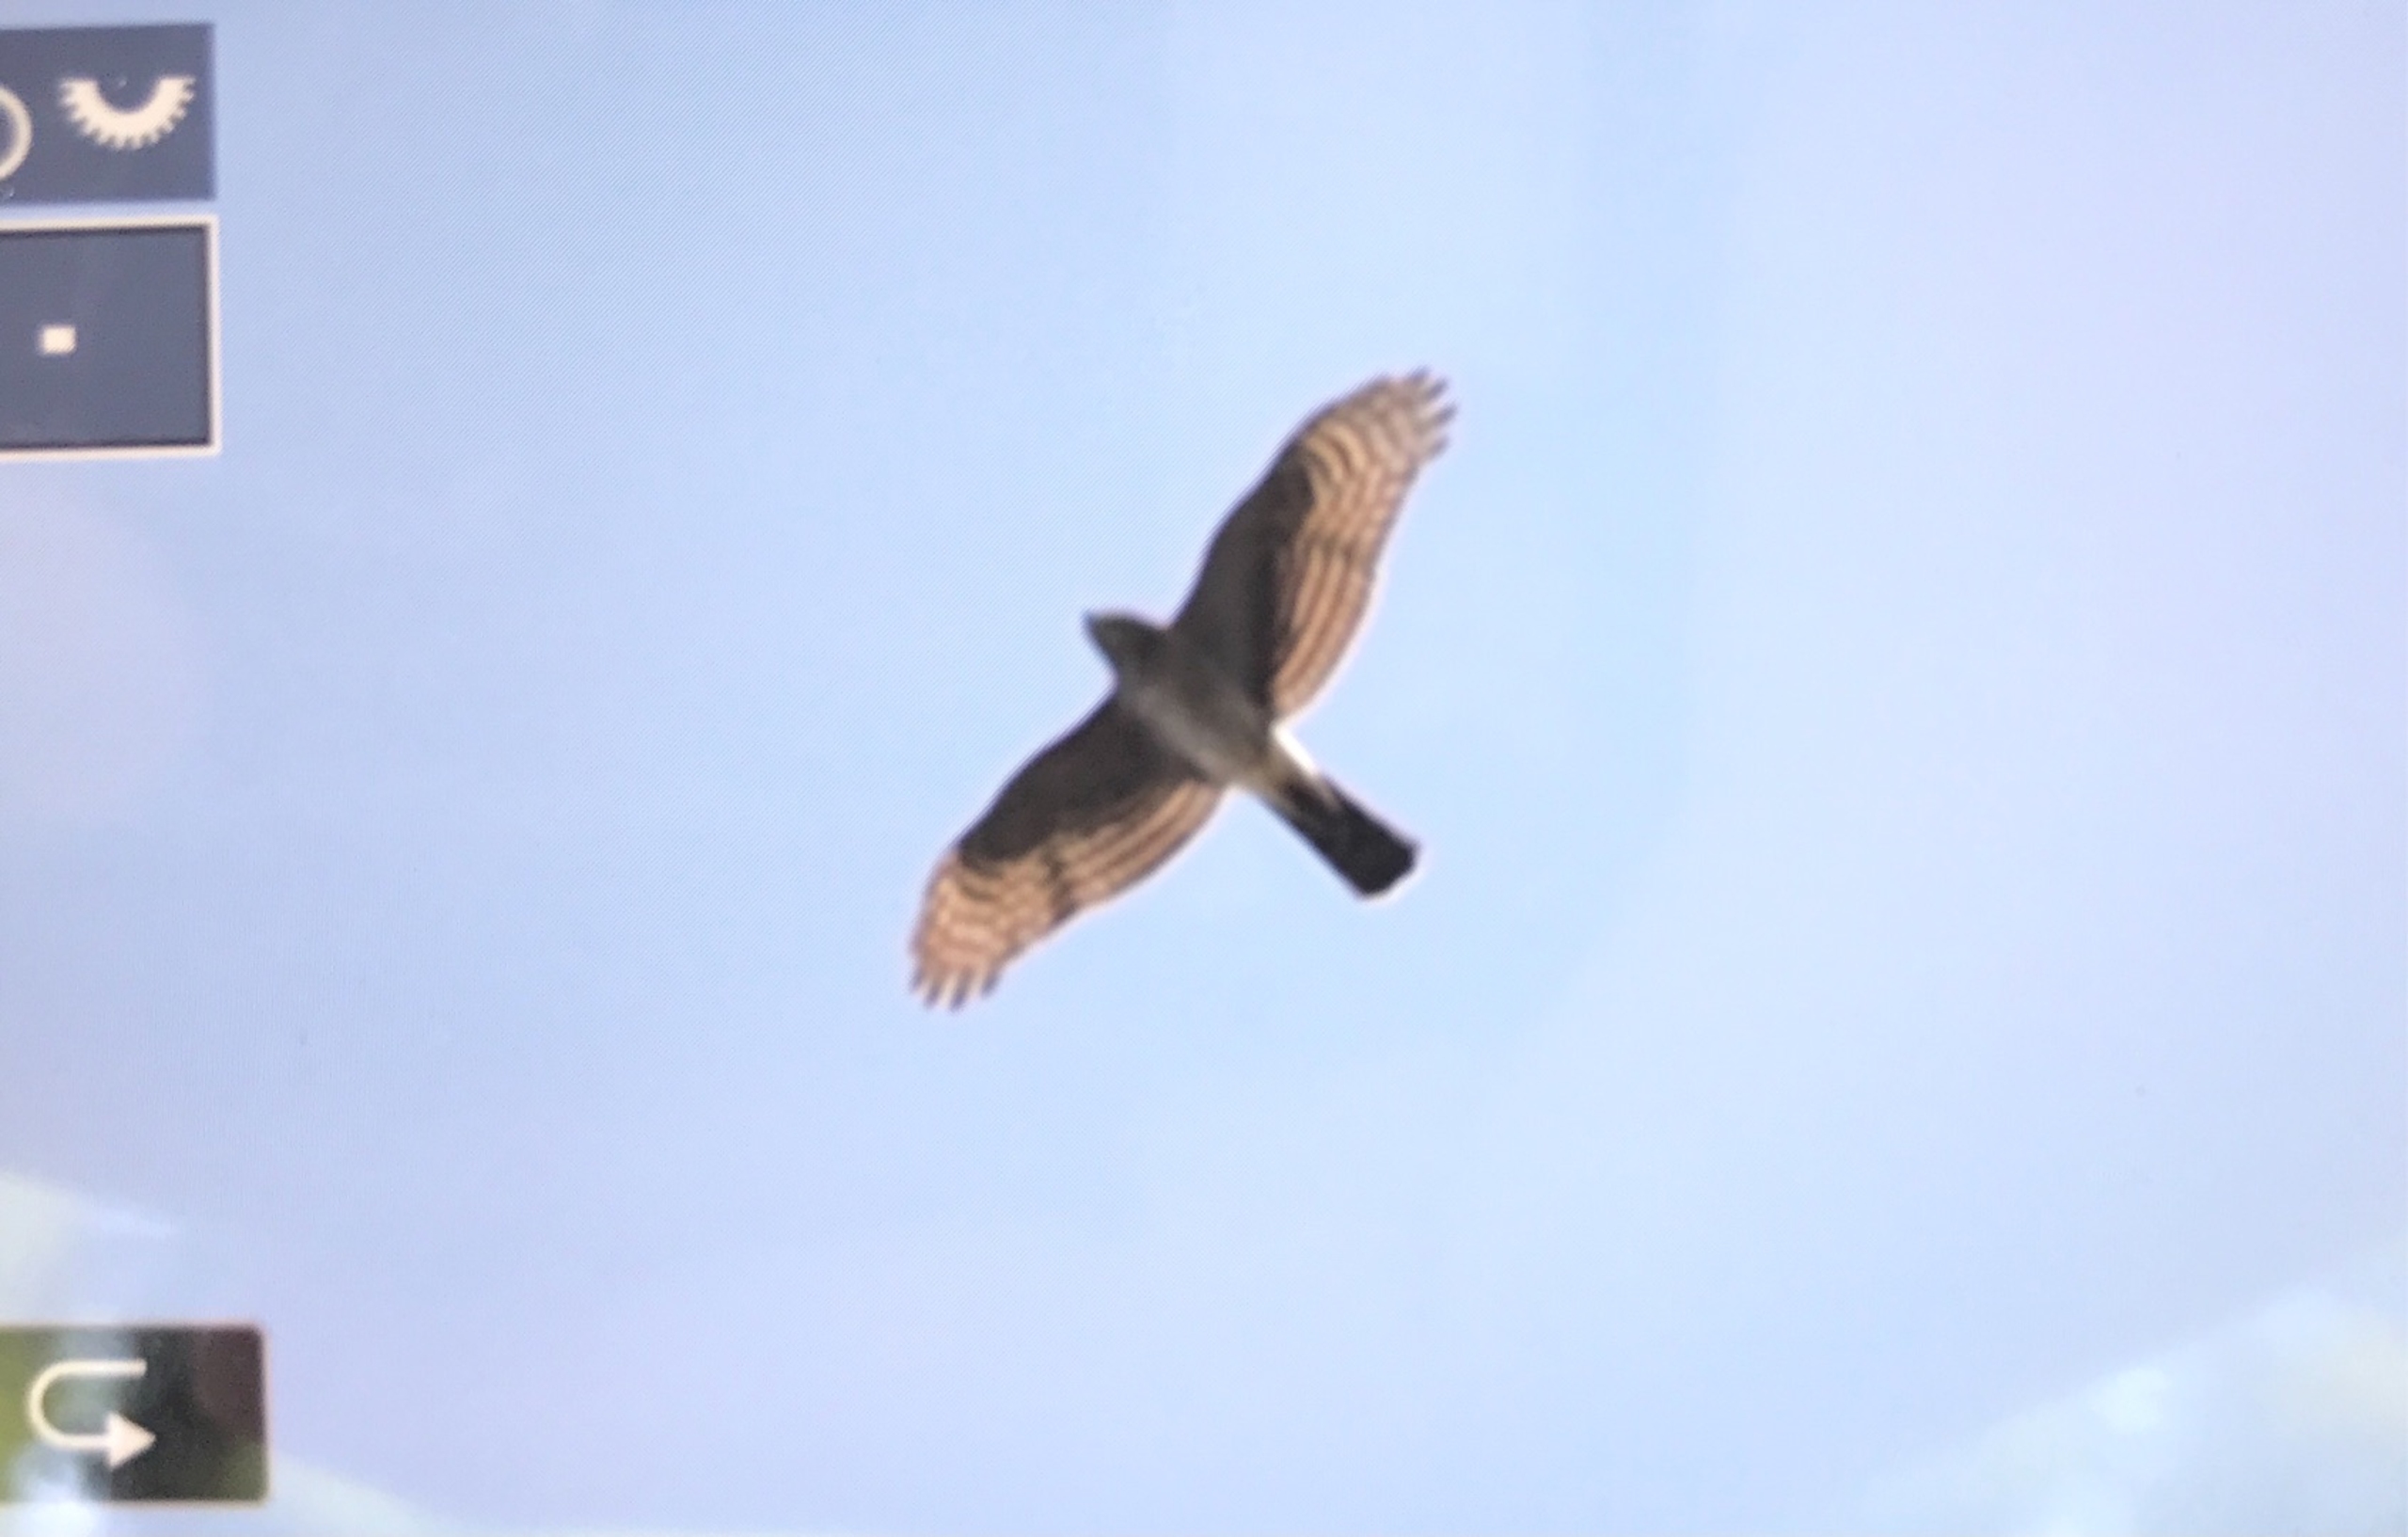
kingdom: Animalia
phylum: Chordata
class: Aves
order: Accipitriformes
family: Accipitridae
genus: Accipiter
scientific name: Accipiter nisus
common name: Spurvehøg
